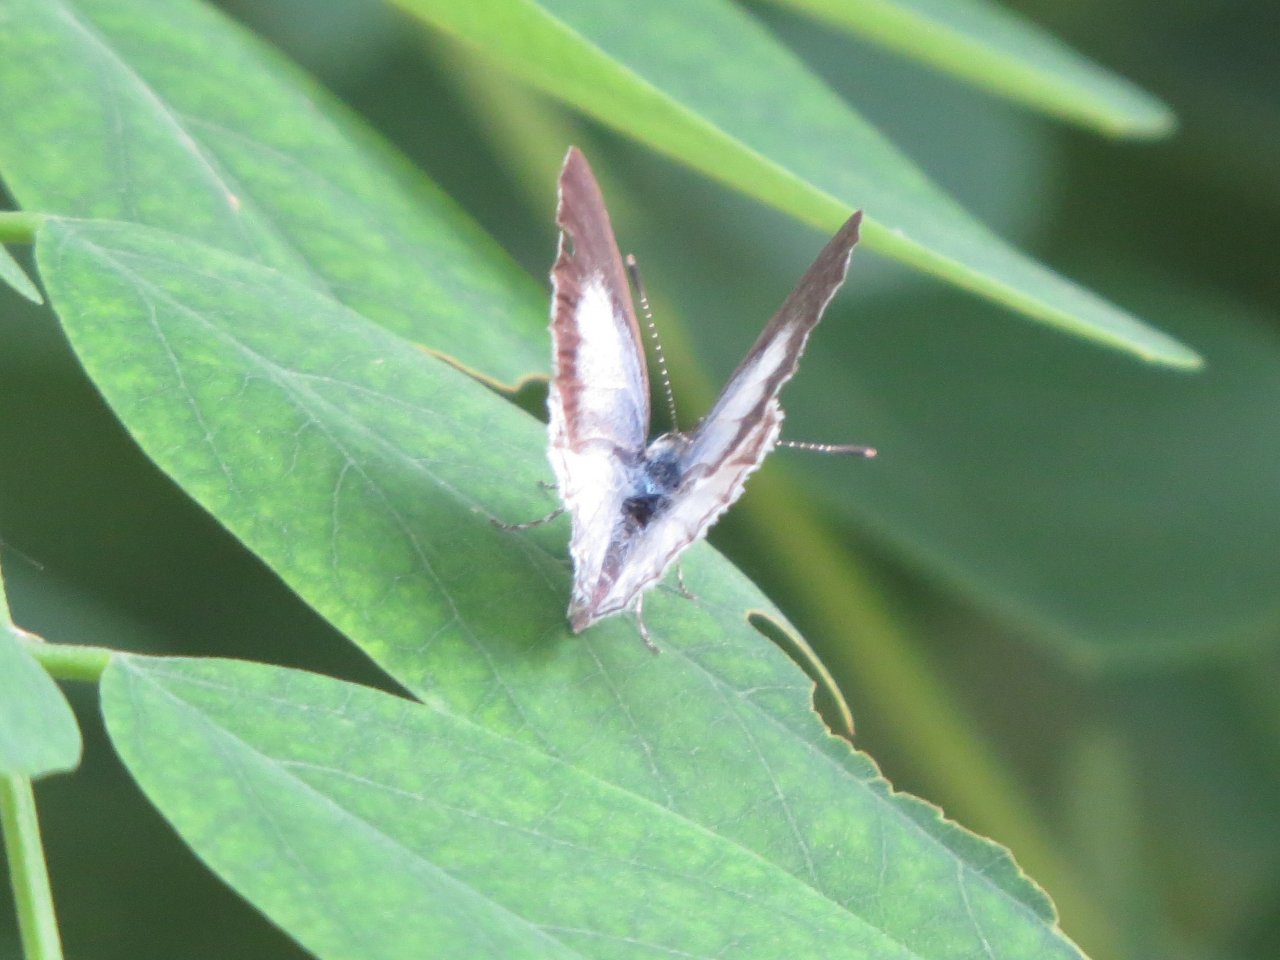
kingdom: Animalia
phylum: Arthropoda
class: Insecta
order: Lepidoptera
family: Lycaenidae
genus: Cyaniris
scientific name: Cyaniris neglecta
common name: Summer Azure
